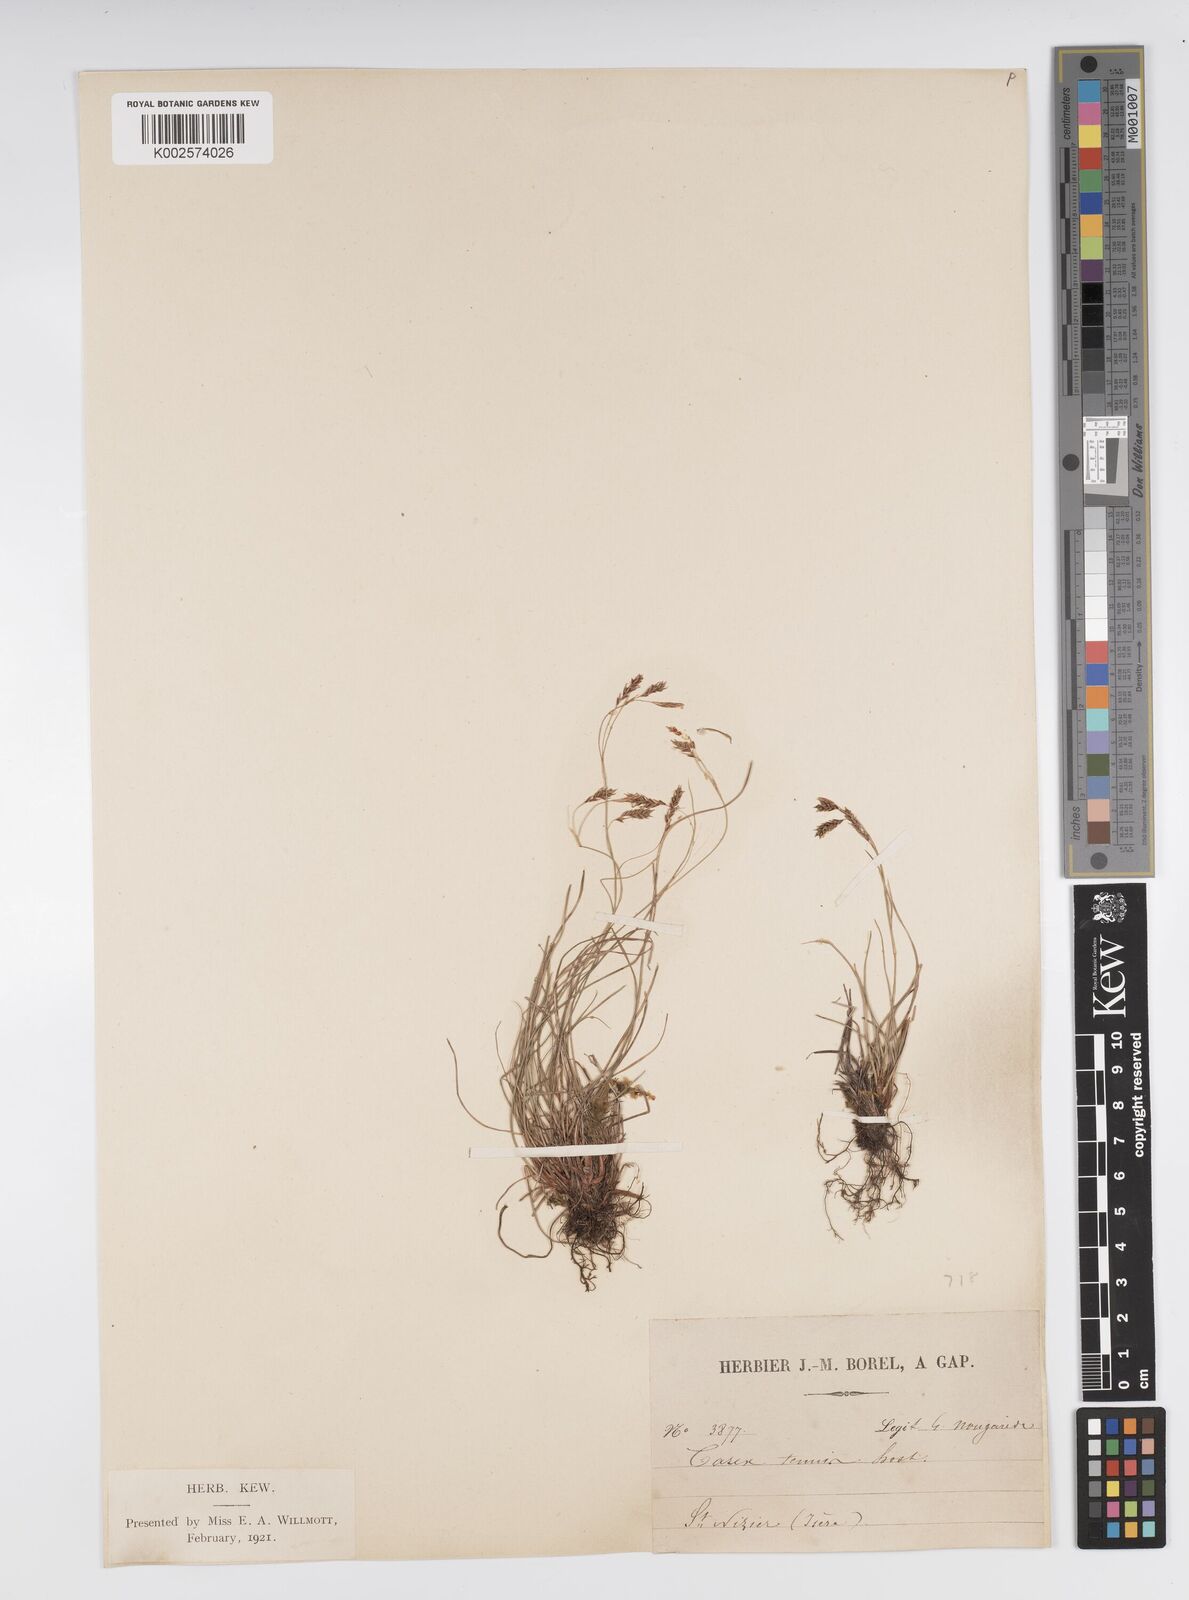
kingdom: Plantae
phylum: Tracheophyta
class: Liliopsida
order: Poales
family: Cyperaceae
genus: Carex
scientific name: Carex brachystachys
